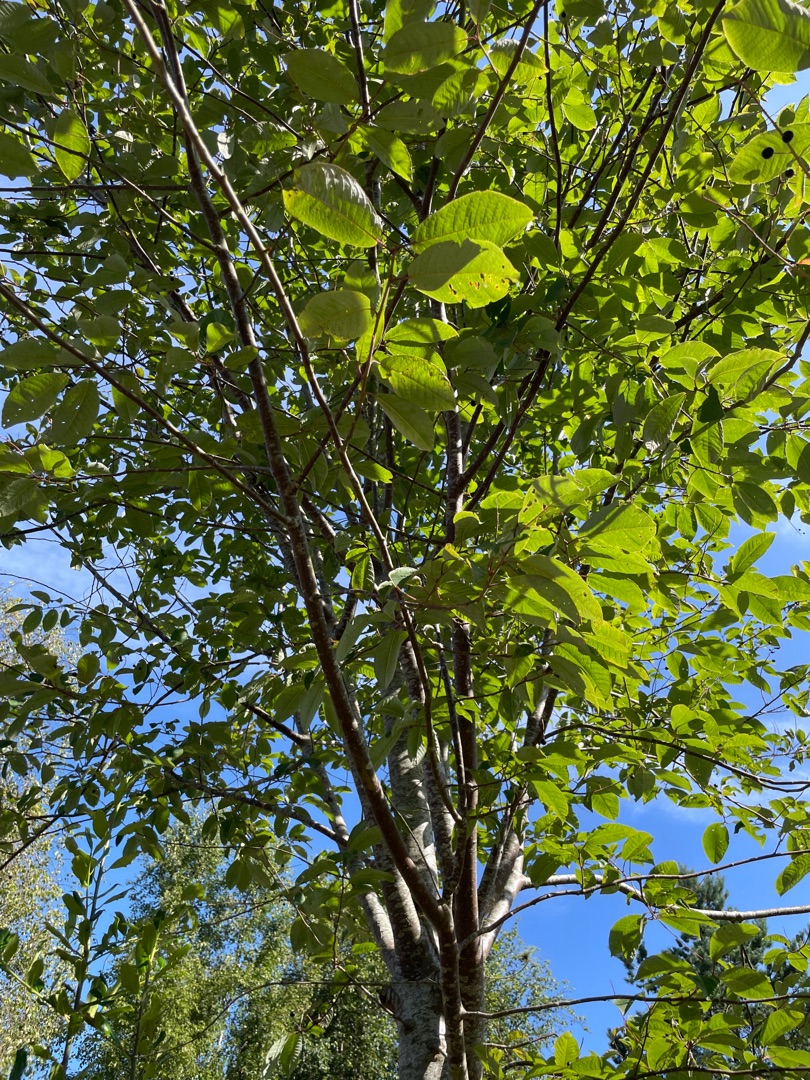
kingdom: Plantae
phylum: Tracheophyta
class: Magnoliopsida
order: Rosales
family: Rosaceae
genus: Prunus
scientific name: Prunus padus
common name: Almindelig hæg
